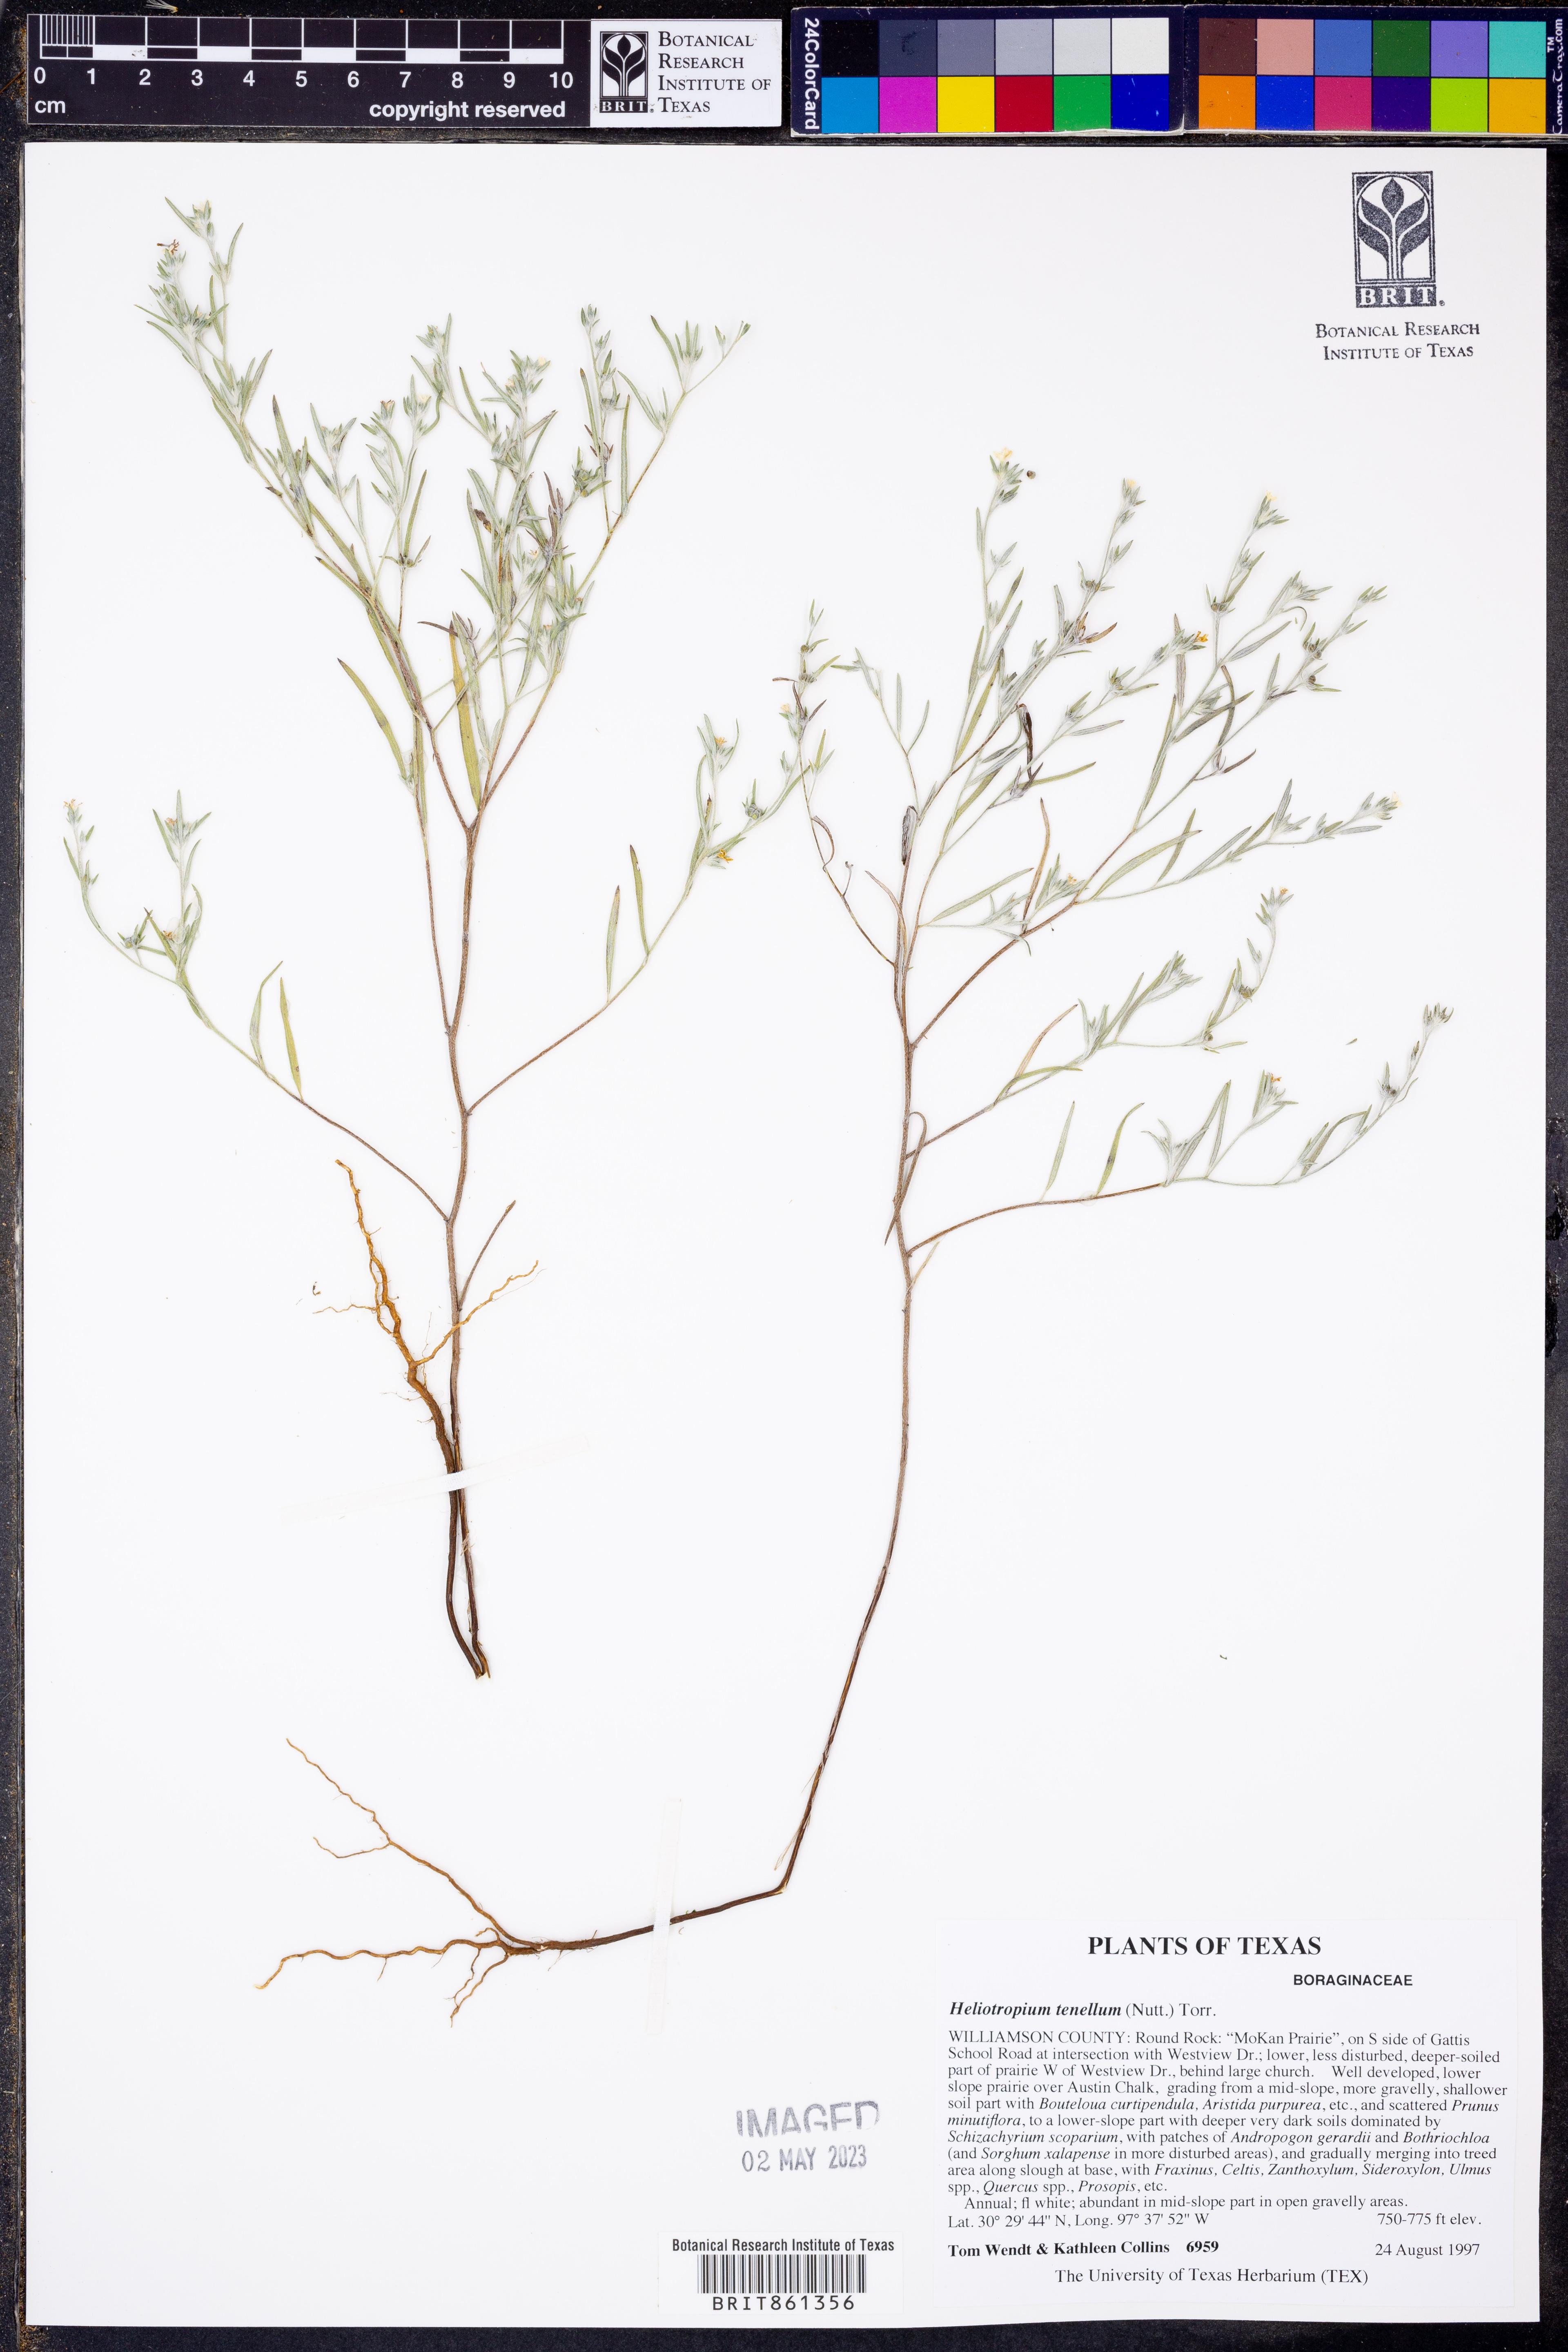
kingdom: Plantae
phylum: Tracheophyta
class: Magnoliopsida
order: Boraginales
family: Heliotropiaceae
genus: Euploca
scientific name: Euploca tenella
